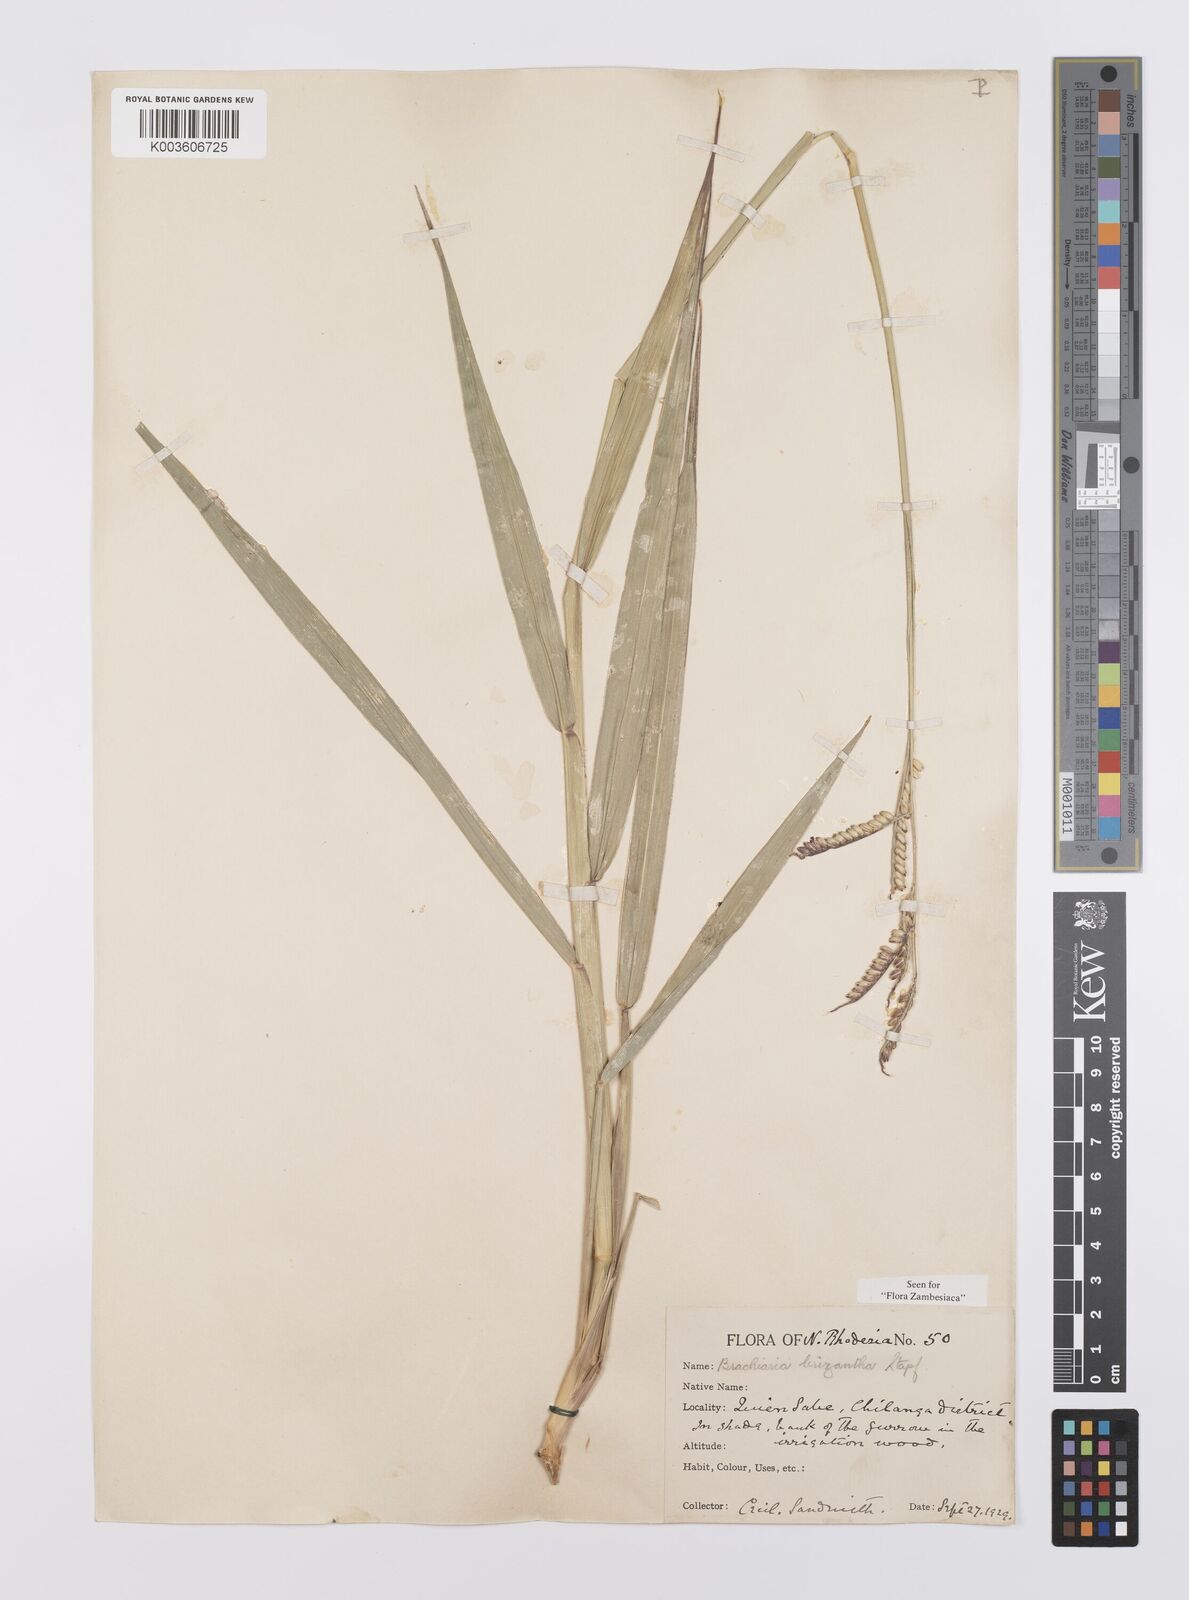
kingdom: Plantae
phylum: Tracheophyta
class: Liliopsida
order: Poales
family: Poaceae
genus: Urochloa
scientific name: Urochloa brizantha
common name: Palisade signalgrass
